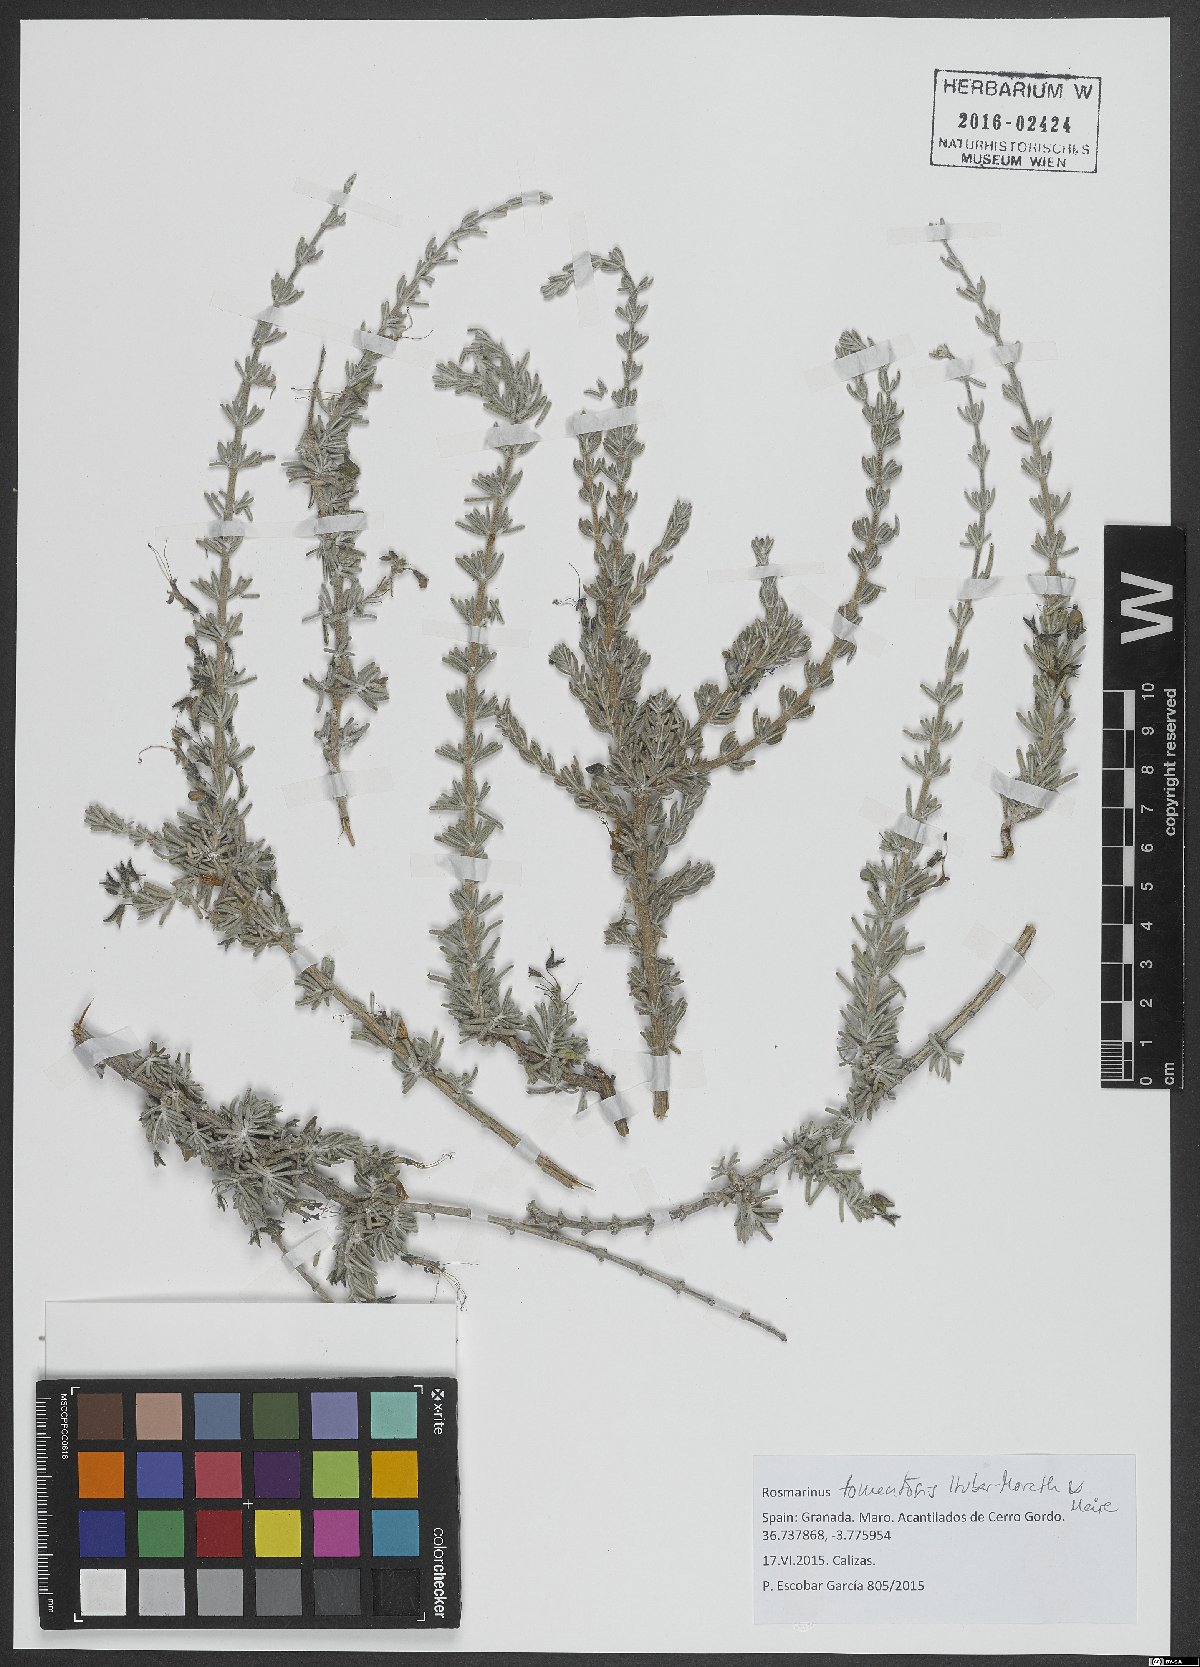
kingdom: Plantae
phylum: Tracheophyta
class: Magnoliopsida
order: Lamiales
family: Lamiaceae
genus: Salvia
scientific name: Salvia granatensis
